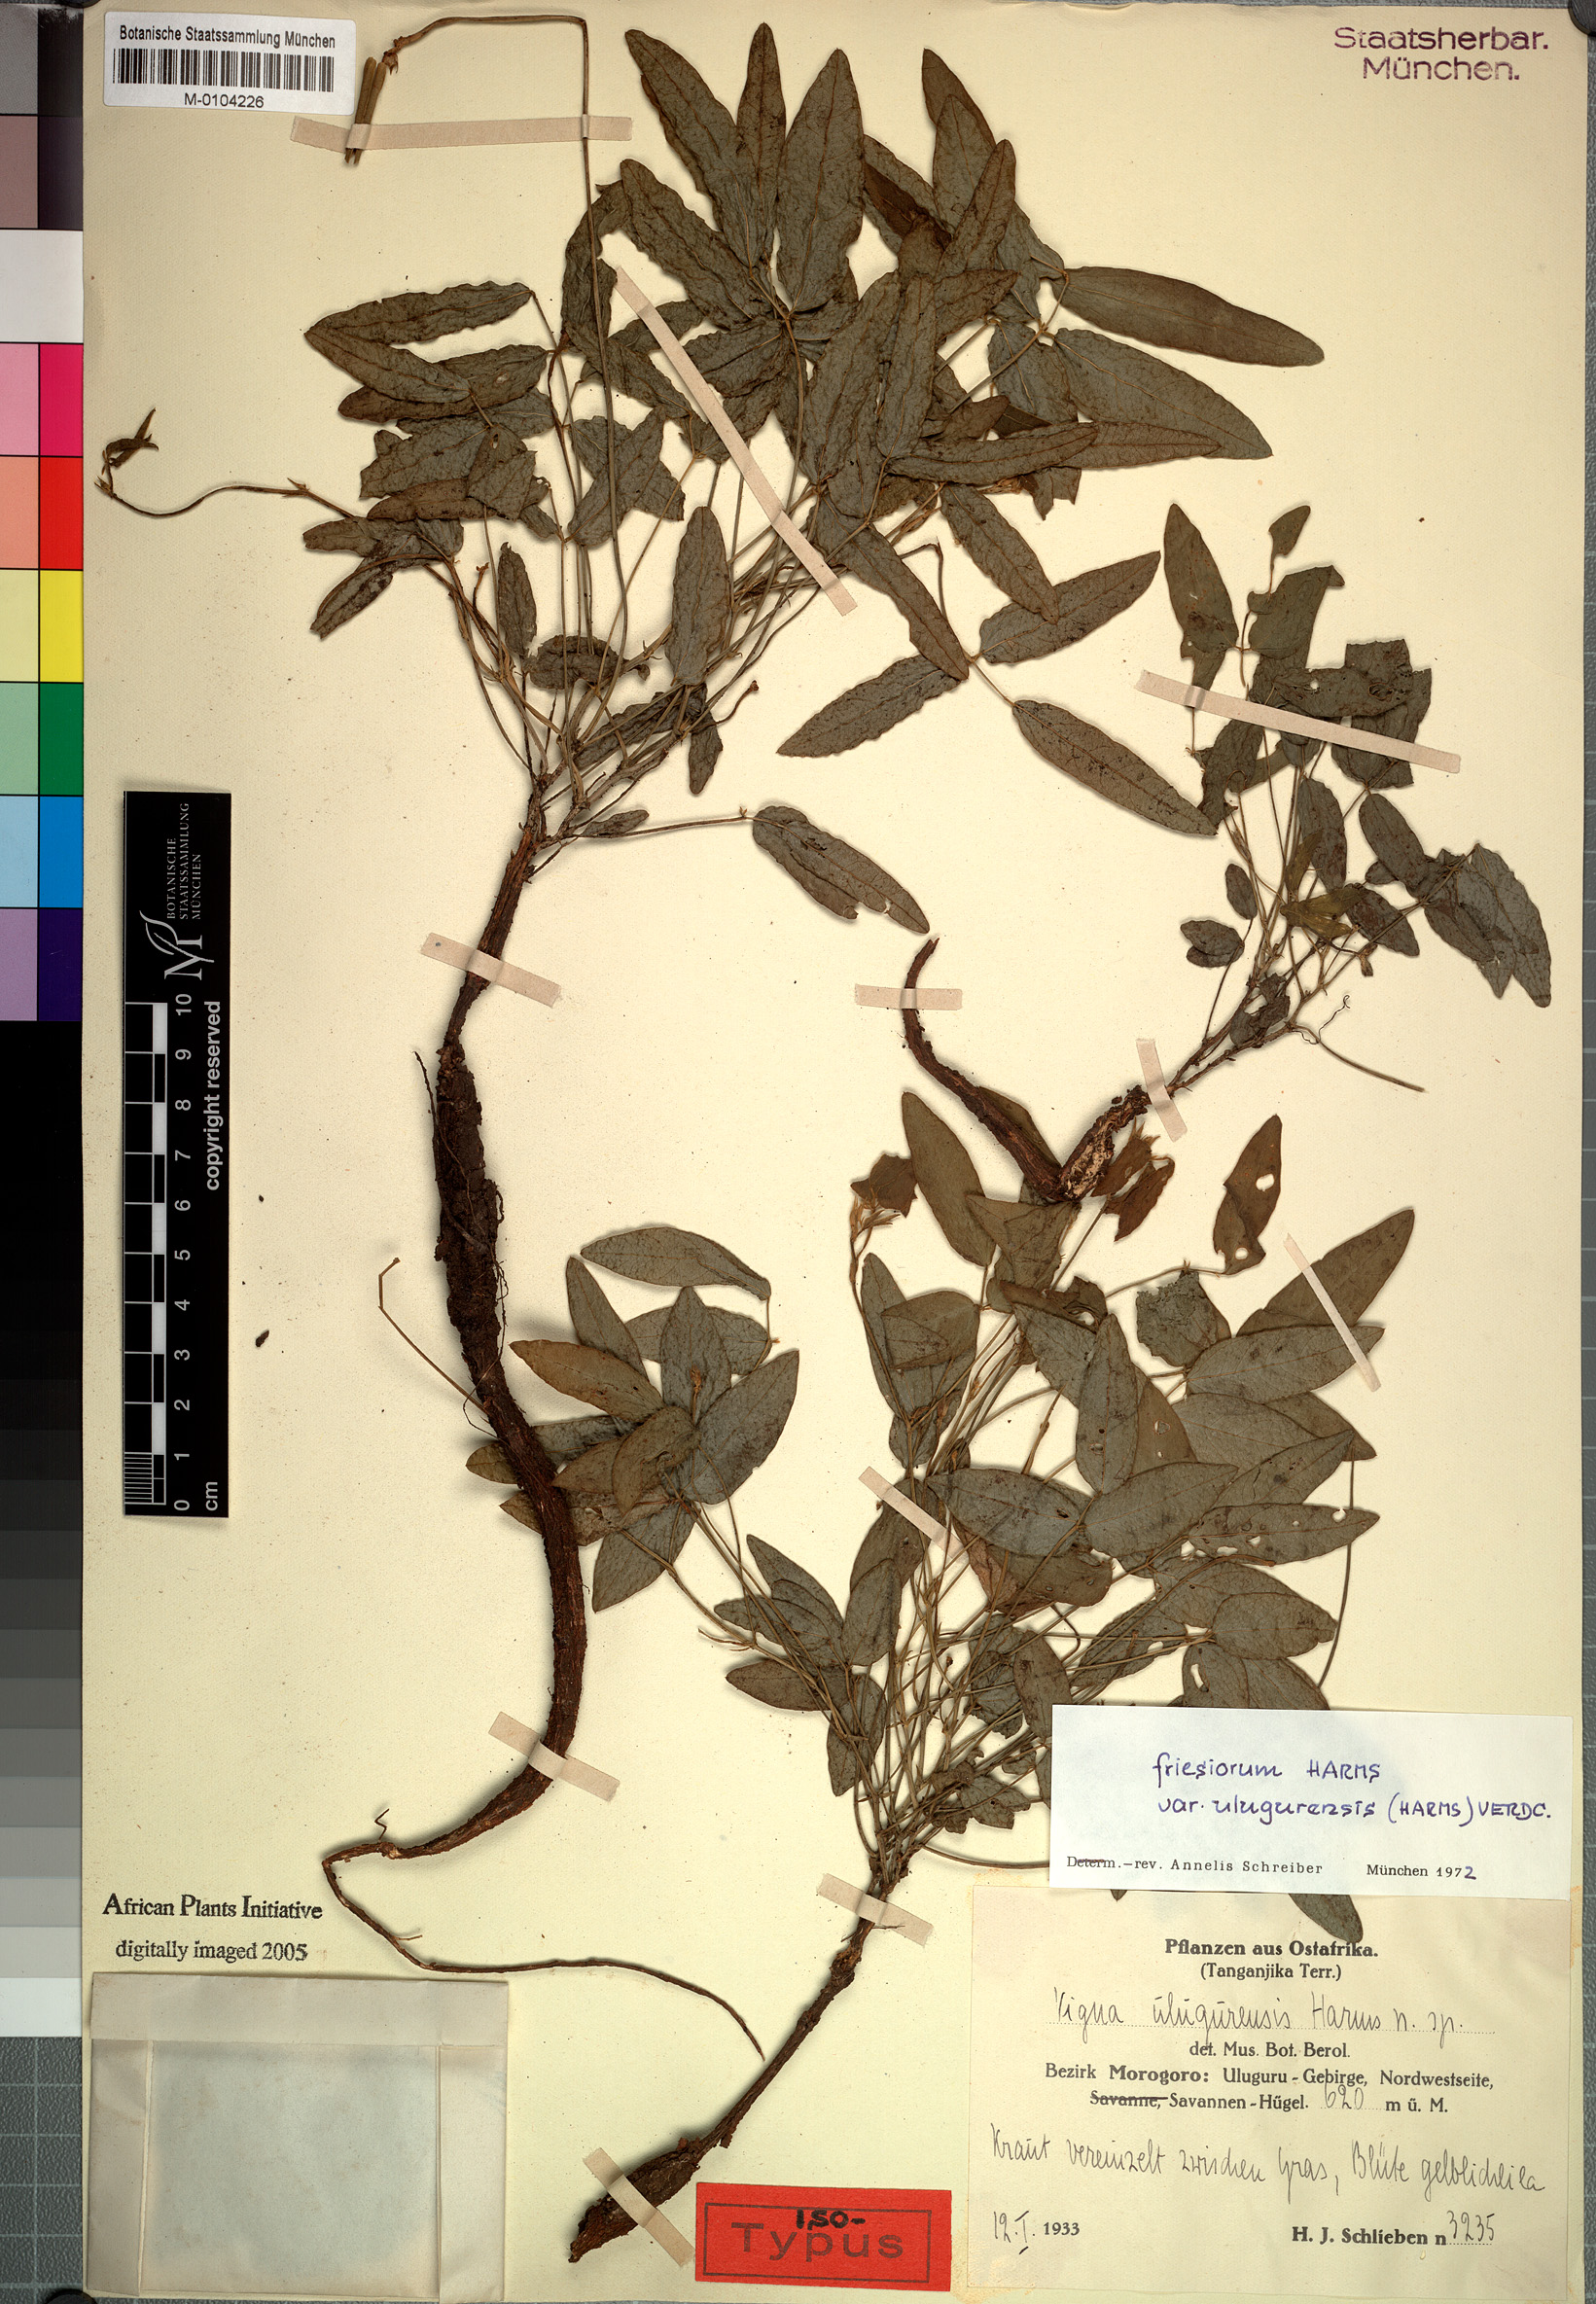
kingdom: Plantae
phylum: Tracheophyta
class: Magnoliopsida
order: Fabales
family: Fabaceae
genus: Vigna
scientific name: Vigna friesiorum
